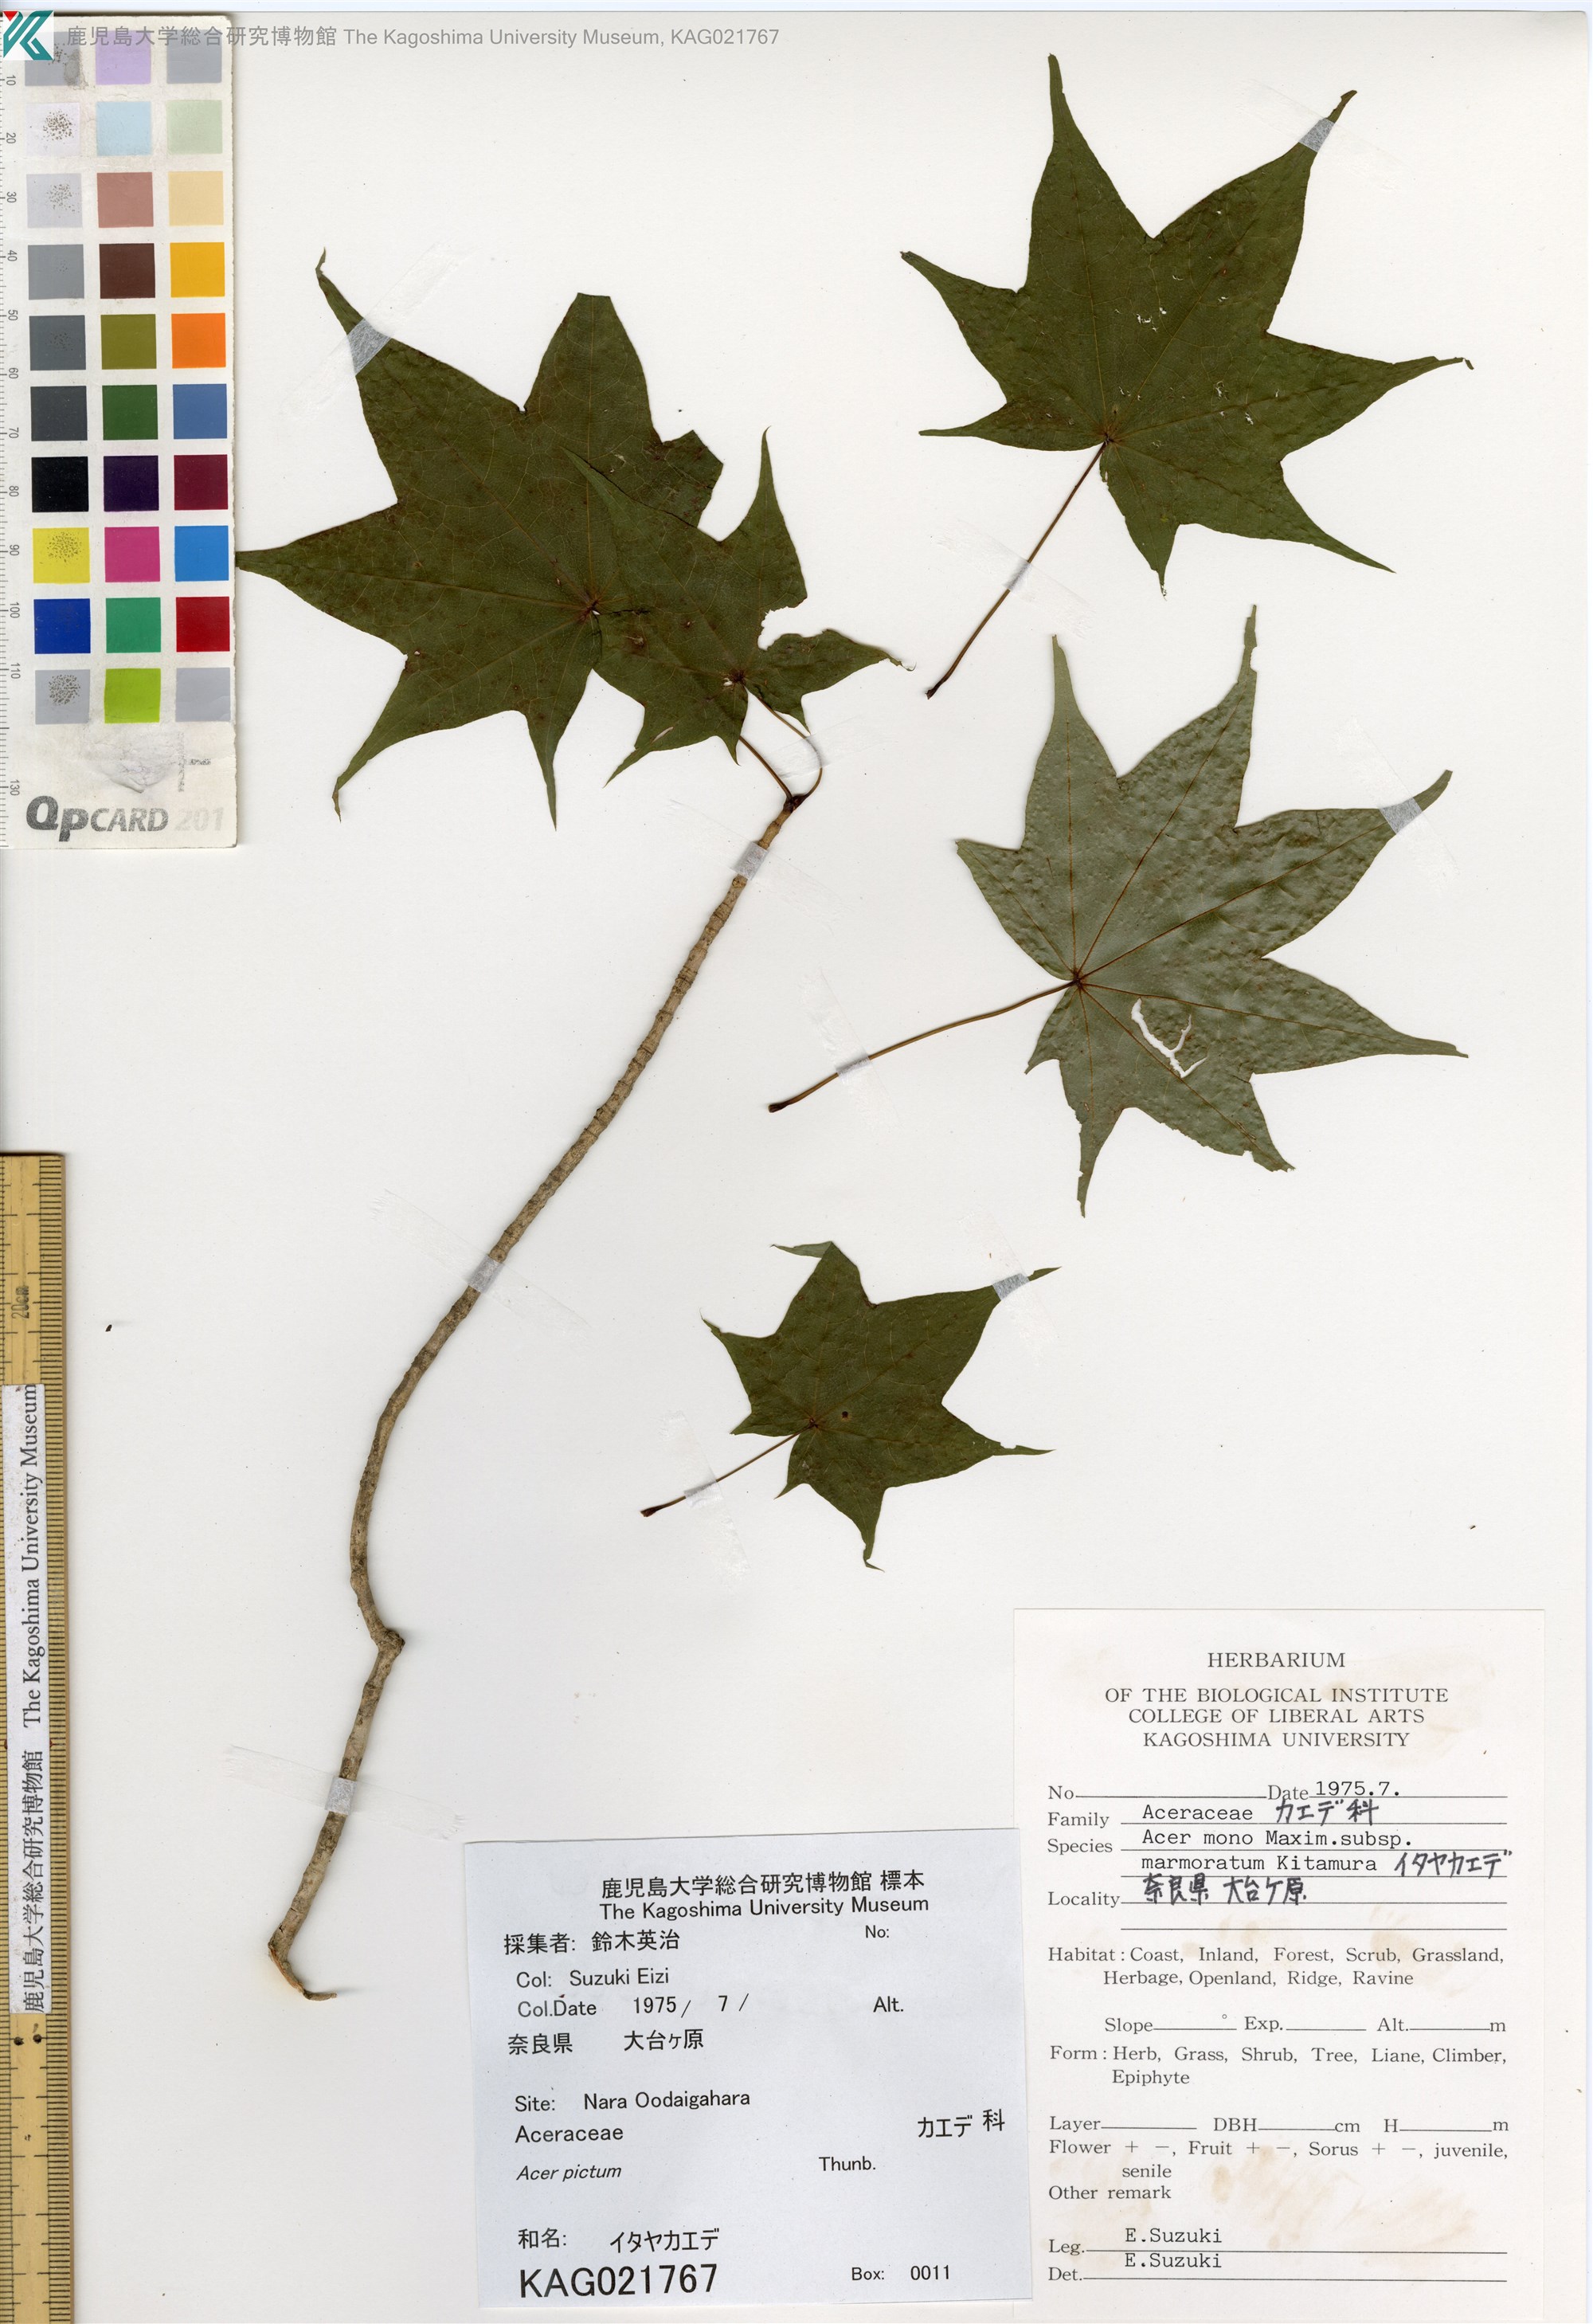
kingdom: Plantae
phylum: Tracheophyta
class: Magnoliopsida
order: Sapindales
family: Sapindaceae
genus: Acer
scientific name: Acer pictum
